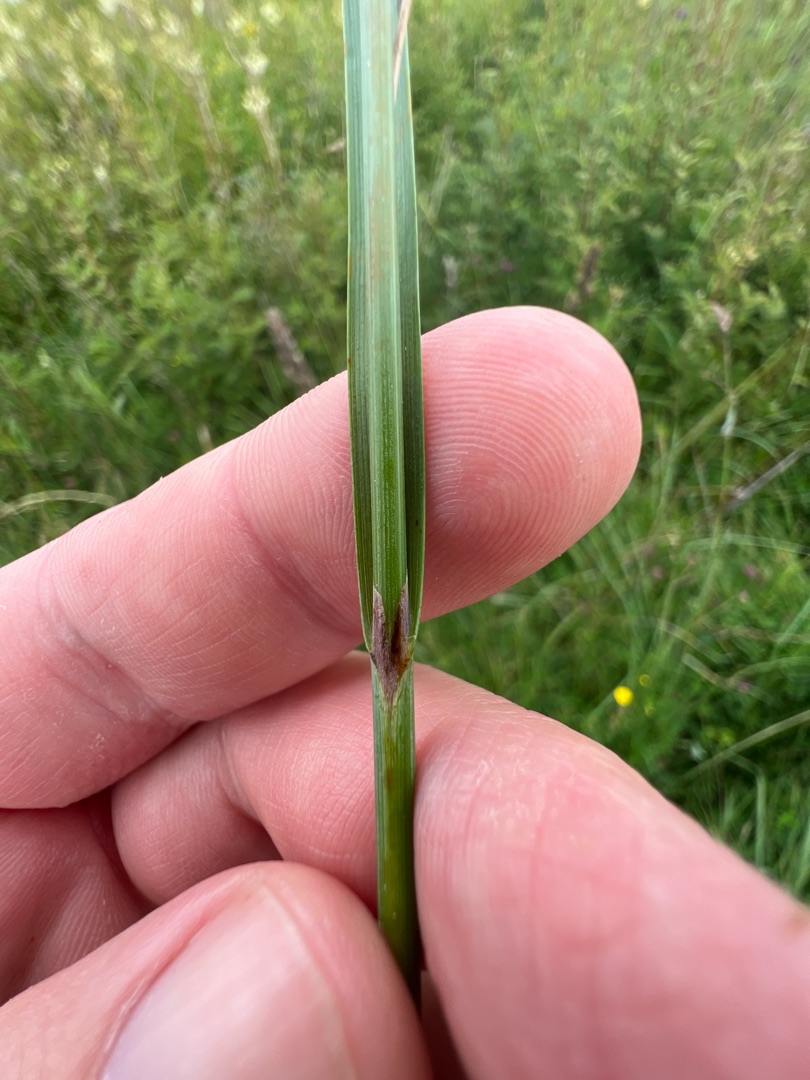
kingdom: Plantae
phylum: Tracheophyta
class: Liliopsida
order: Poales
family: Cyperaceae
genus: Carex
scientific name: Carex flacca
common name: Blågrøn star
